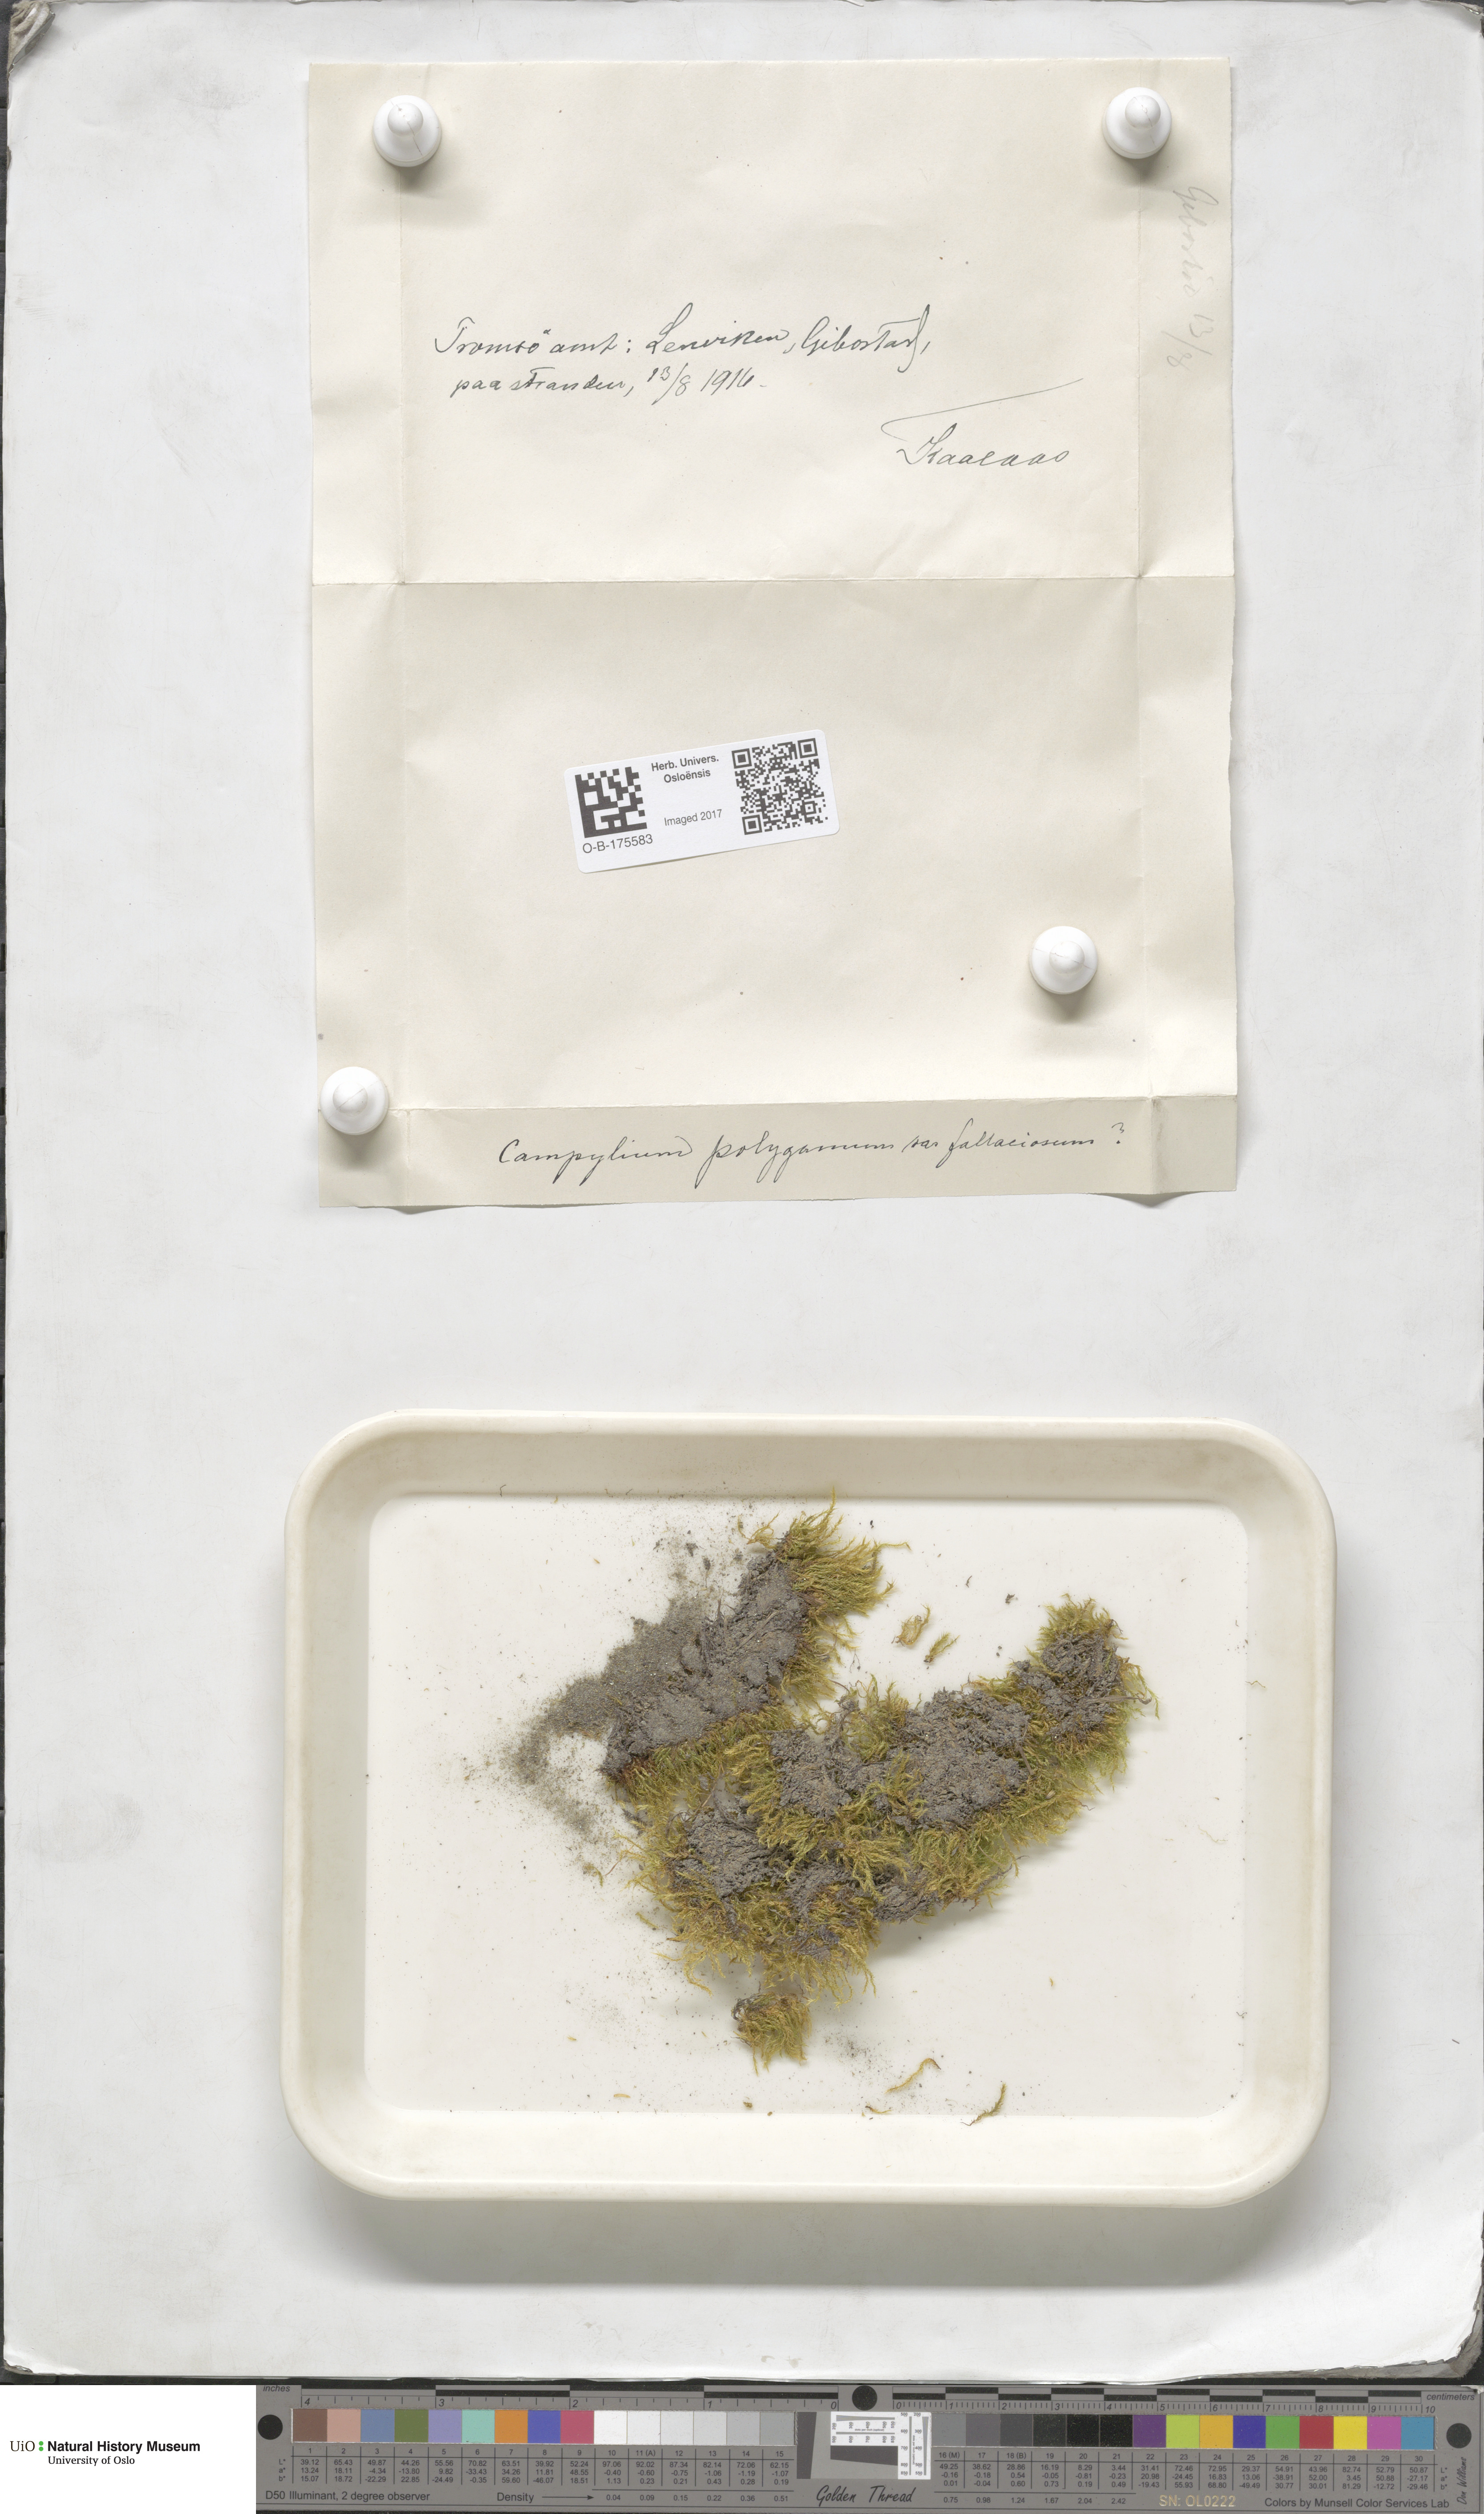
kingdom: Plantae
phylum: Bryophyta
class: Bryopsida
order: Hypnales
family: Amblystegiaceae
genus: Drepanocladus
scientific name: Drepanocladus polygamus
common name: Polygamous hook moss
